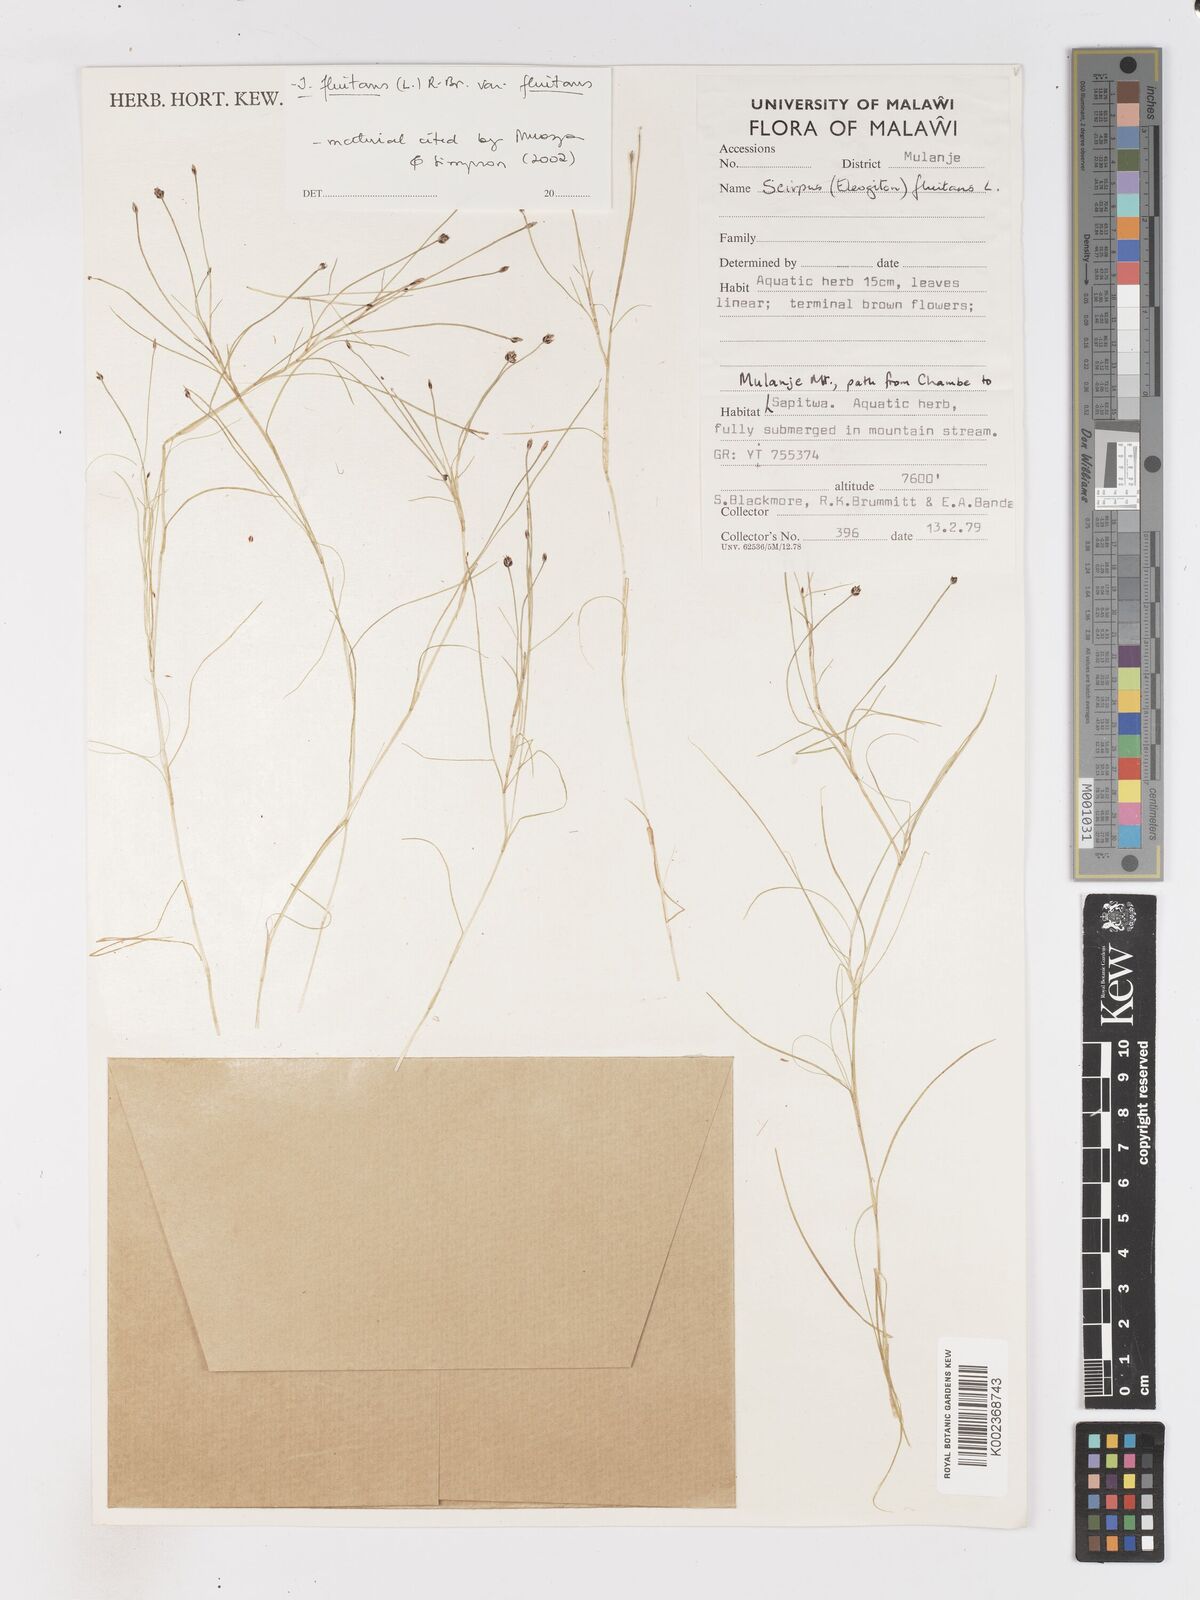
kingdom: Plantae
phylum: Tracheophyta
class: Liliopsida
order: Poales
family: Cyperaceae
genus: Isolepis
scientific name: Isolepis fluitans
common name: Floating club-rush
